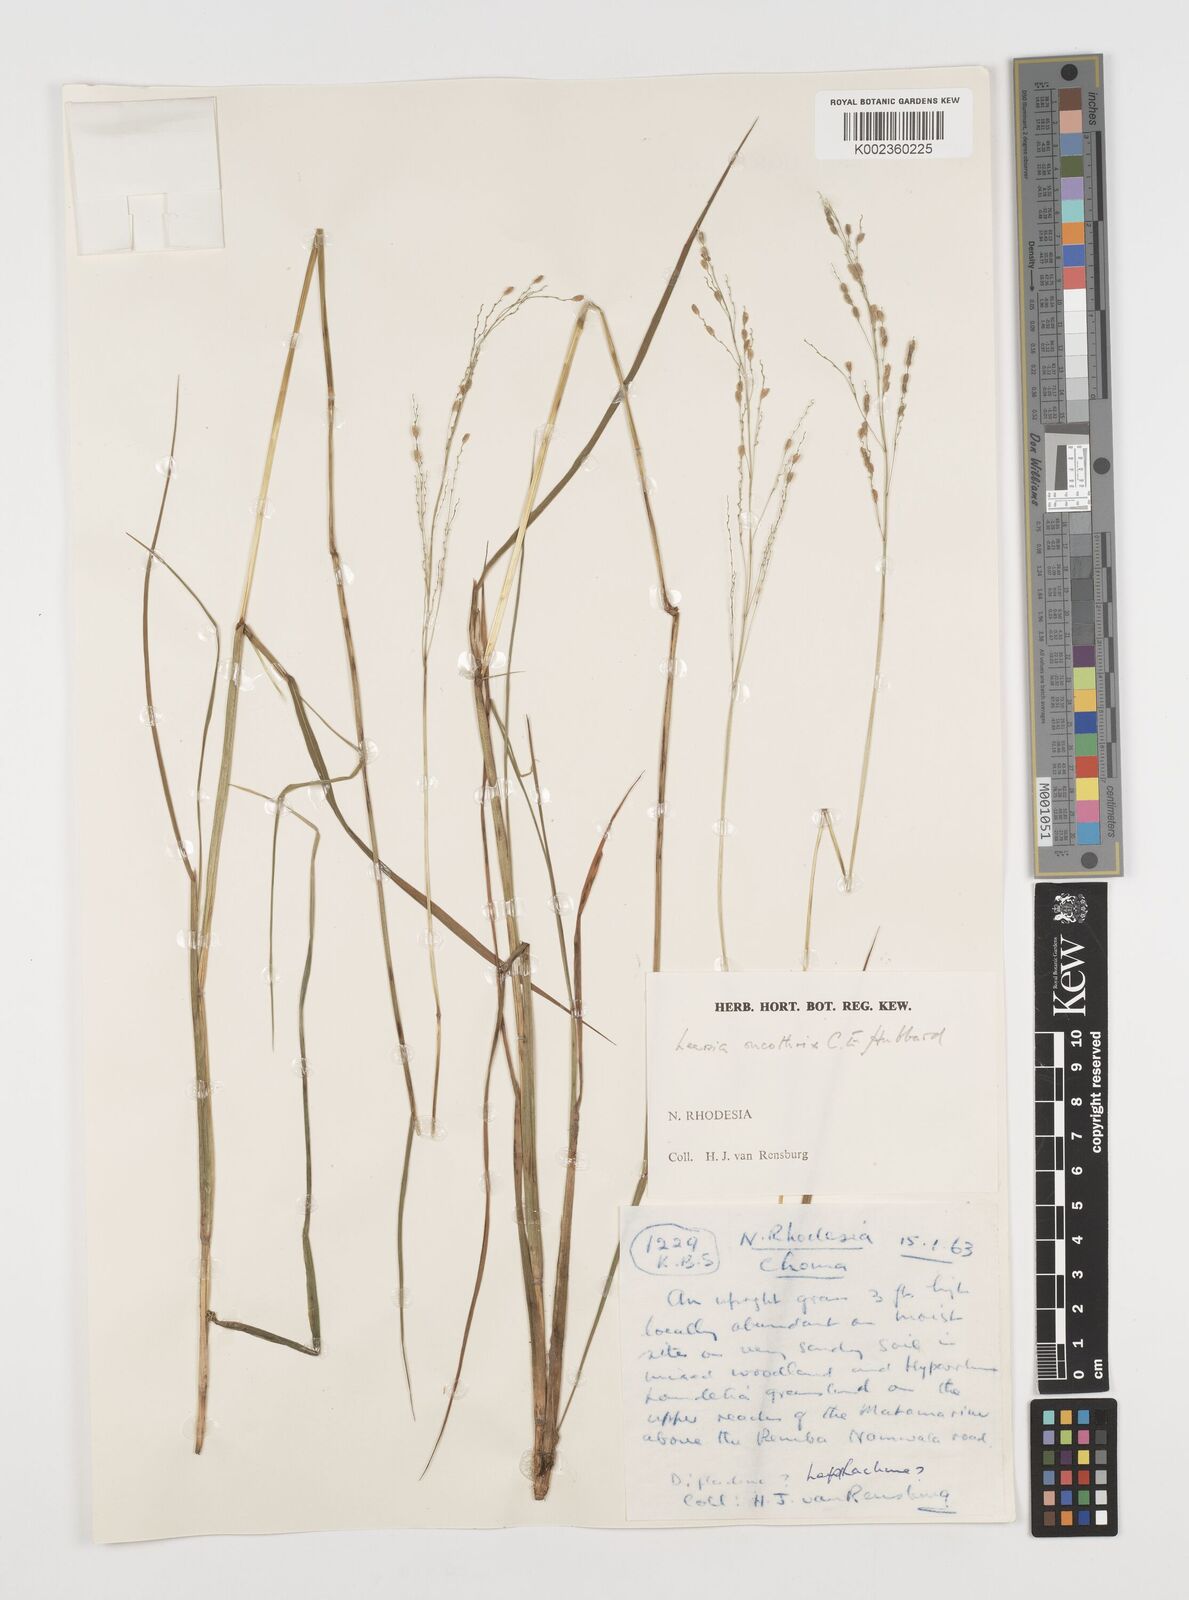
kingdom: Plantae
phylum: Tracheophyta
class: Liliopsida
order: Poales
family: Poaceae
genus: Leersia
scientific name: Leersia oncothrix
